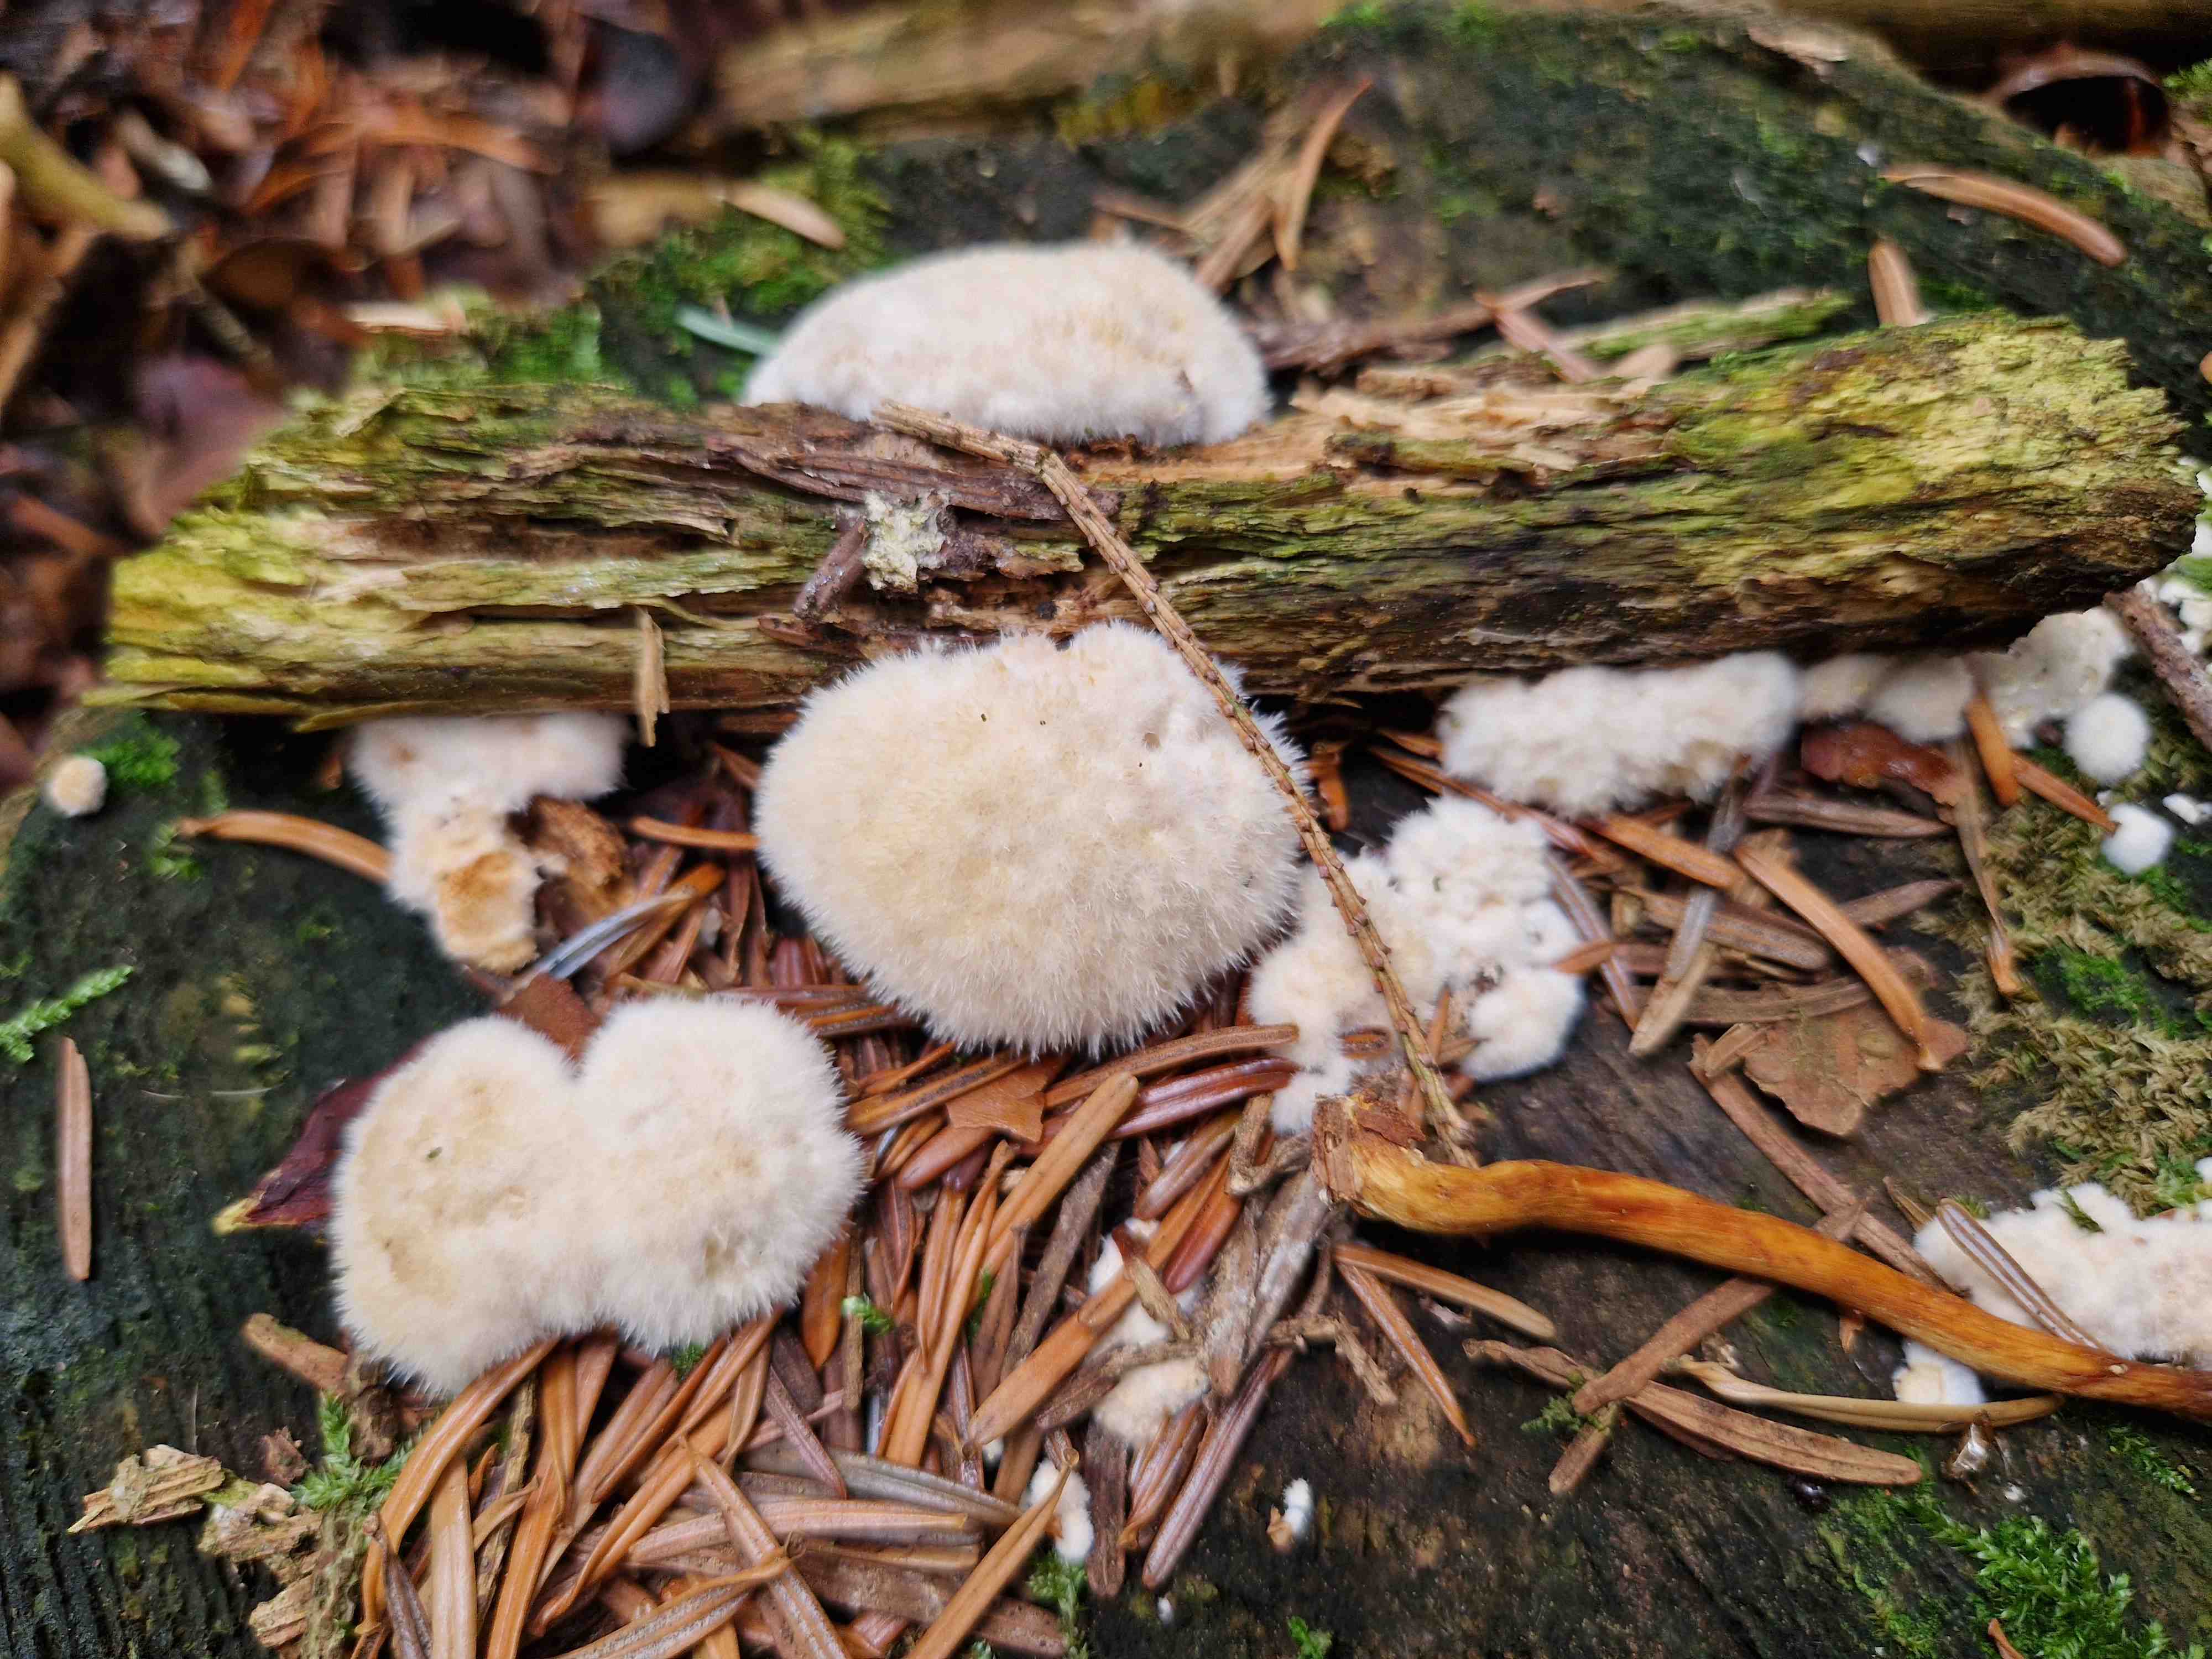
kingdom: Fungi
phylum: Basidiomycota
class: Agaricomycetes
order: Polyporales
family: Dacryobolaceae
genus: Postia
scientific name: Postia ptychogaster
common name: støvende kødporesvamp
